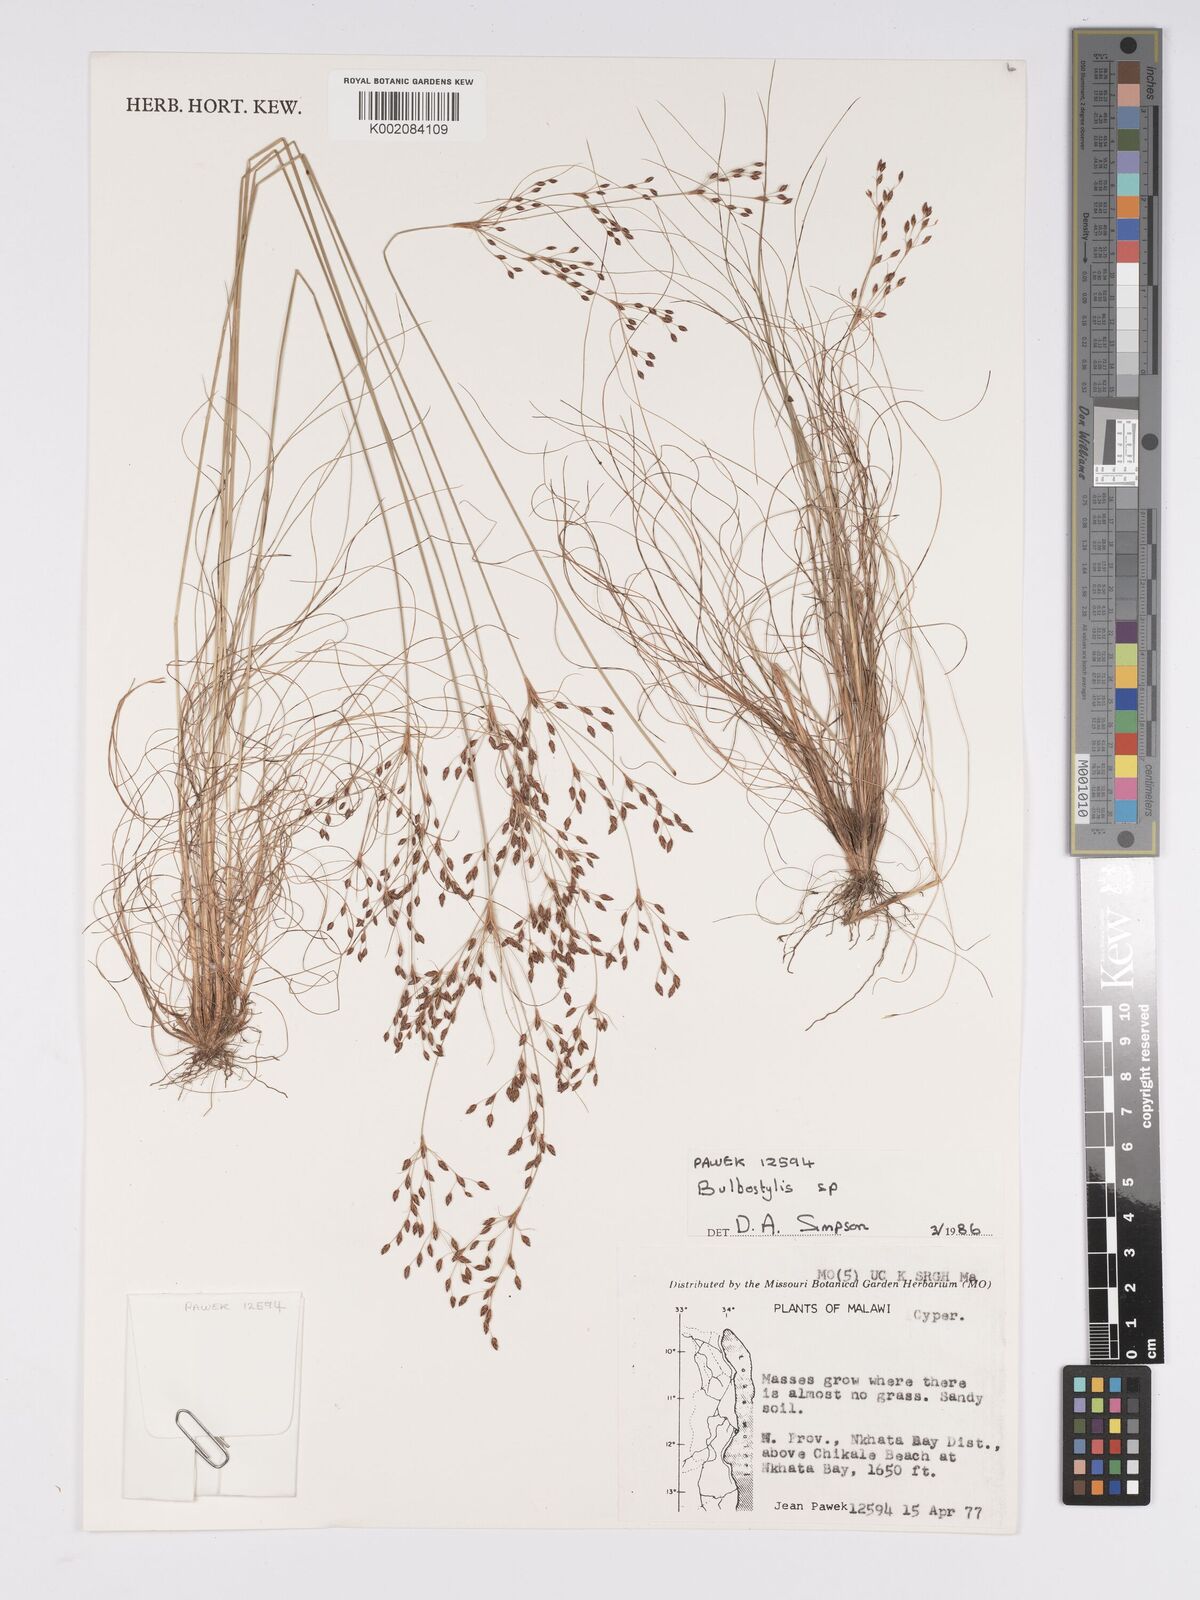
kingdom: Plantae
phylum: Tracheophyta
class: Liliopsida
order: Poales
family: Cyperaceae
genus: Bulbostylis
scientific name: Bulbostylis
